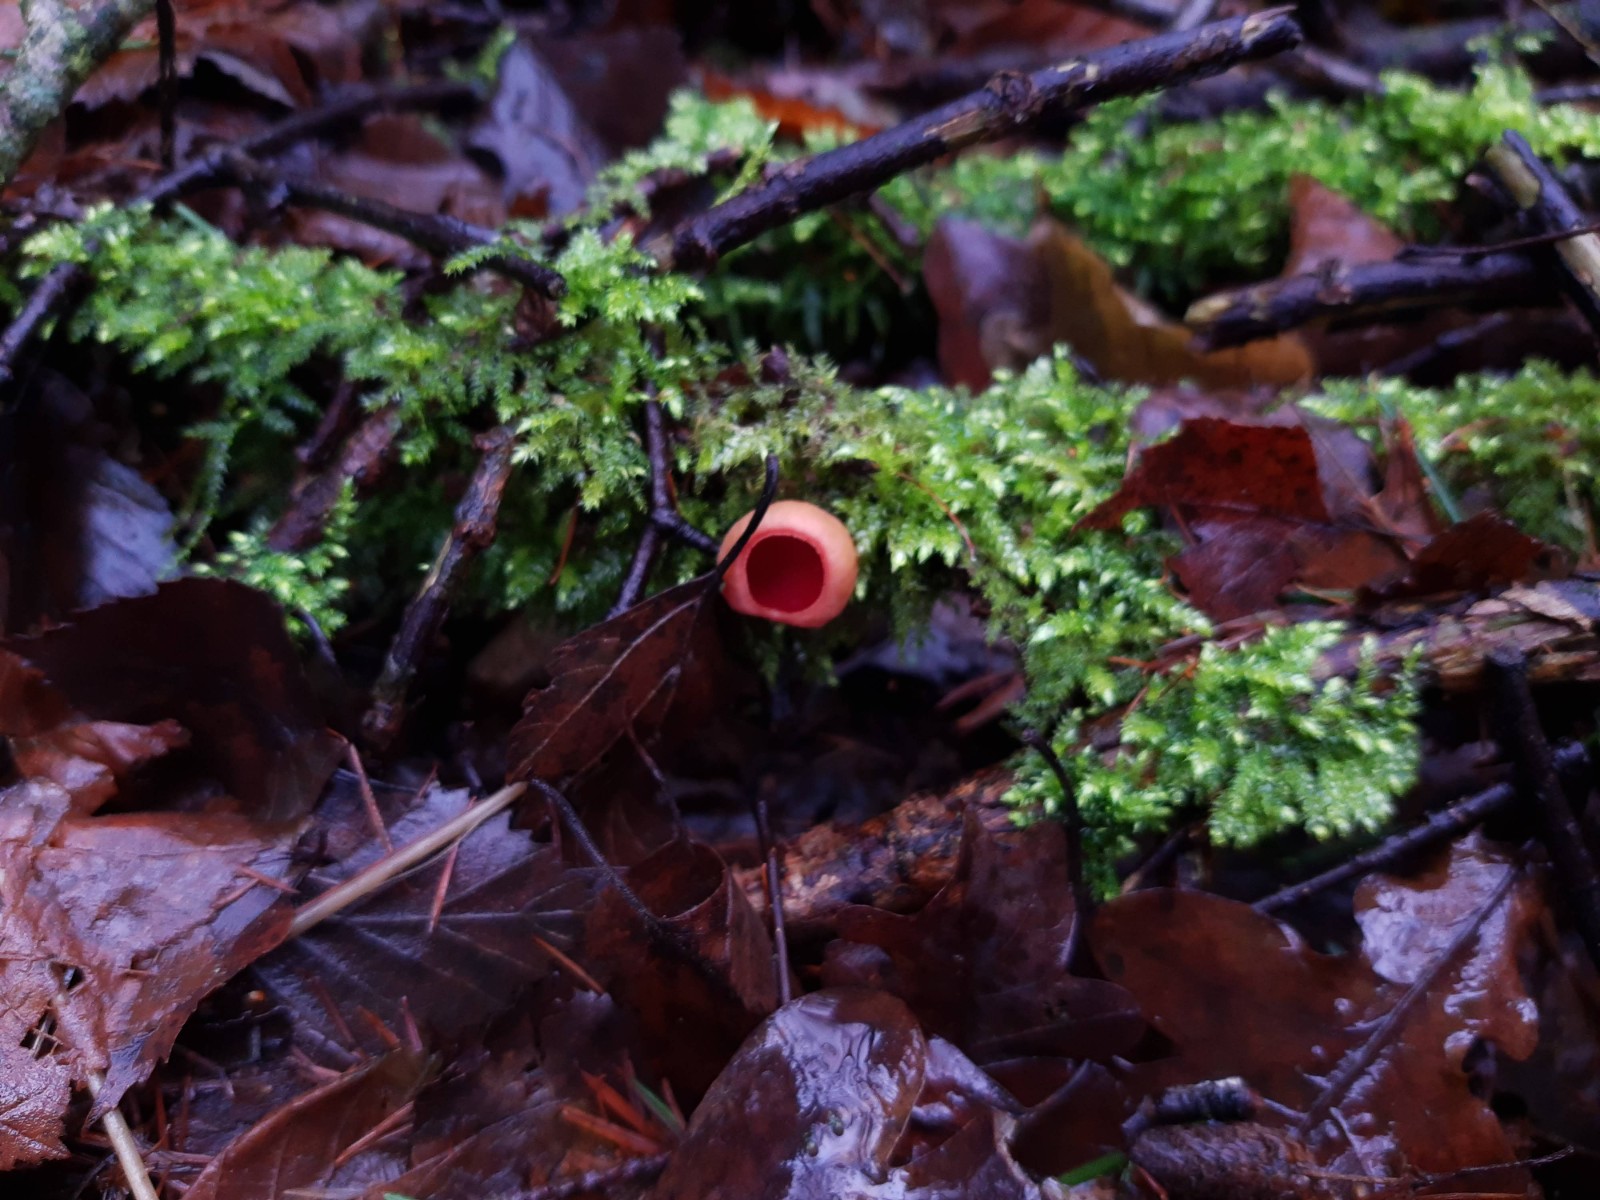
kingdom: Fungi
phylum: Ascomycota
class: Pezizomycetes
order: Pezizales
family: Sarcoscyphaceae
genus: Sarcoscypha
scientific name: Sarcoscypha austriaca
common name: krølhåret pragtbæger
